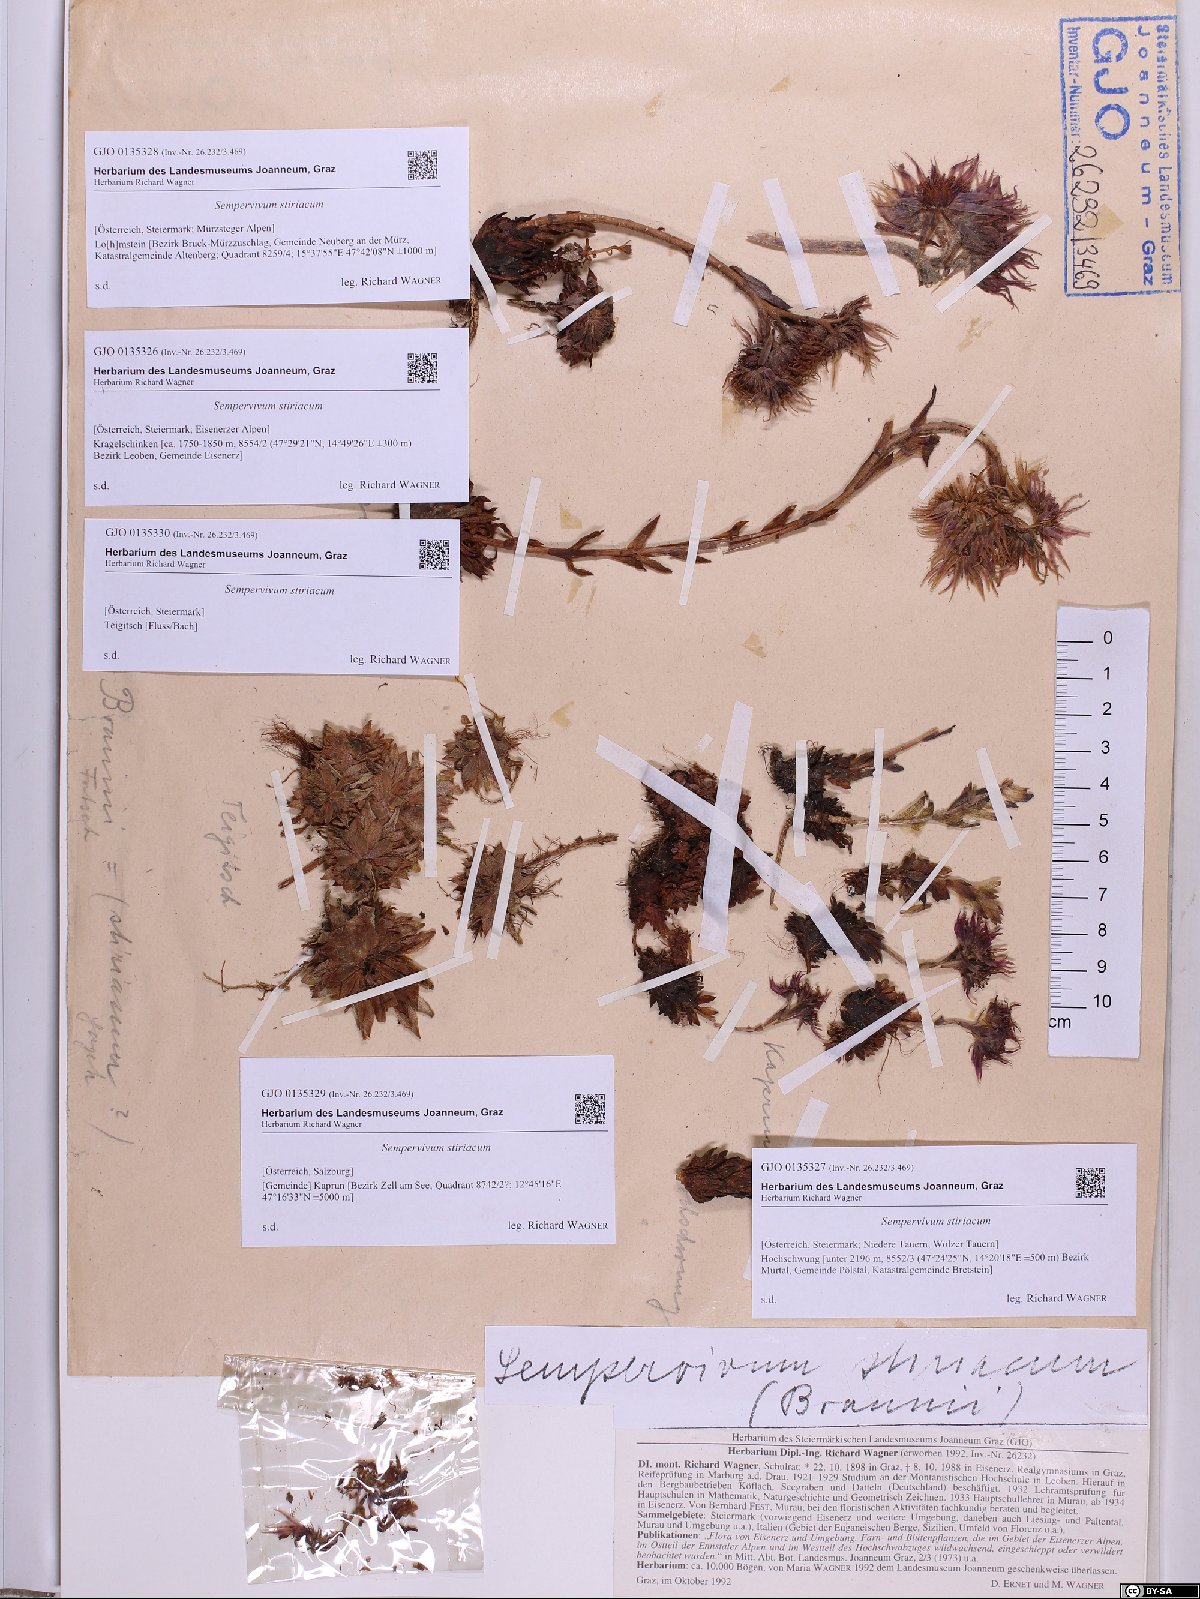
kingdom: Plantae
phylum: Tracheophyta
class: Magnoliopsida
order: Saxifragales
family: Crassulaceae
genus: Sempervivum
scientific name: Sempervivum montanum
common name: Mountain house-leek
